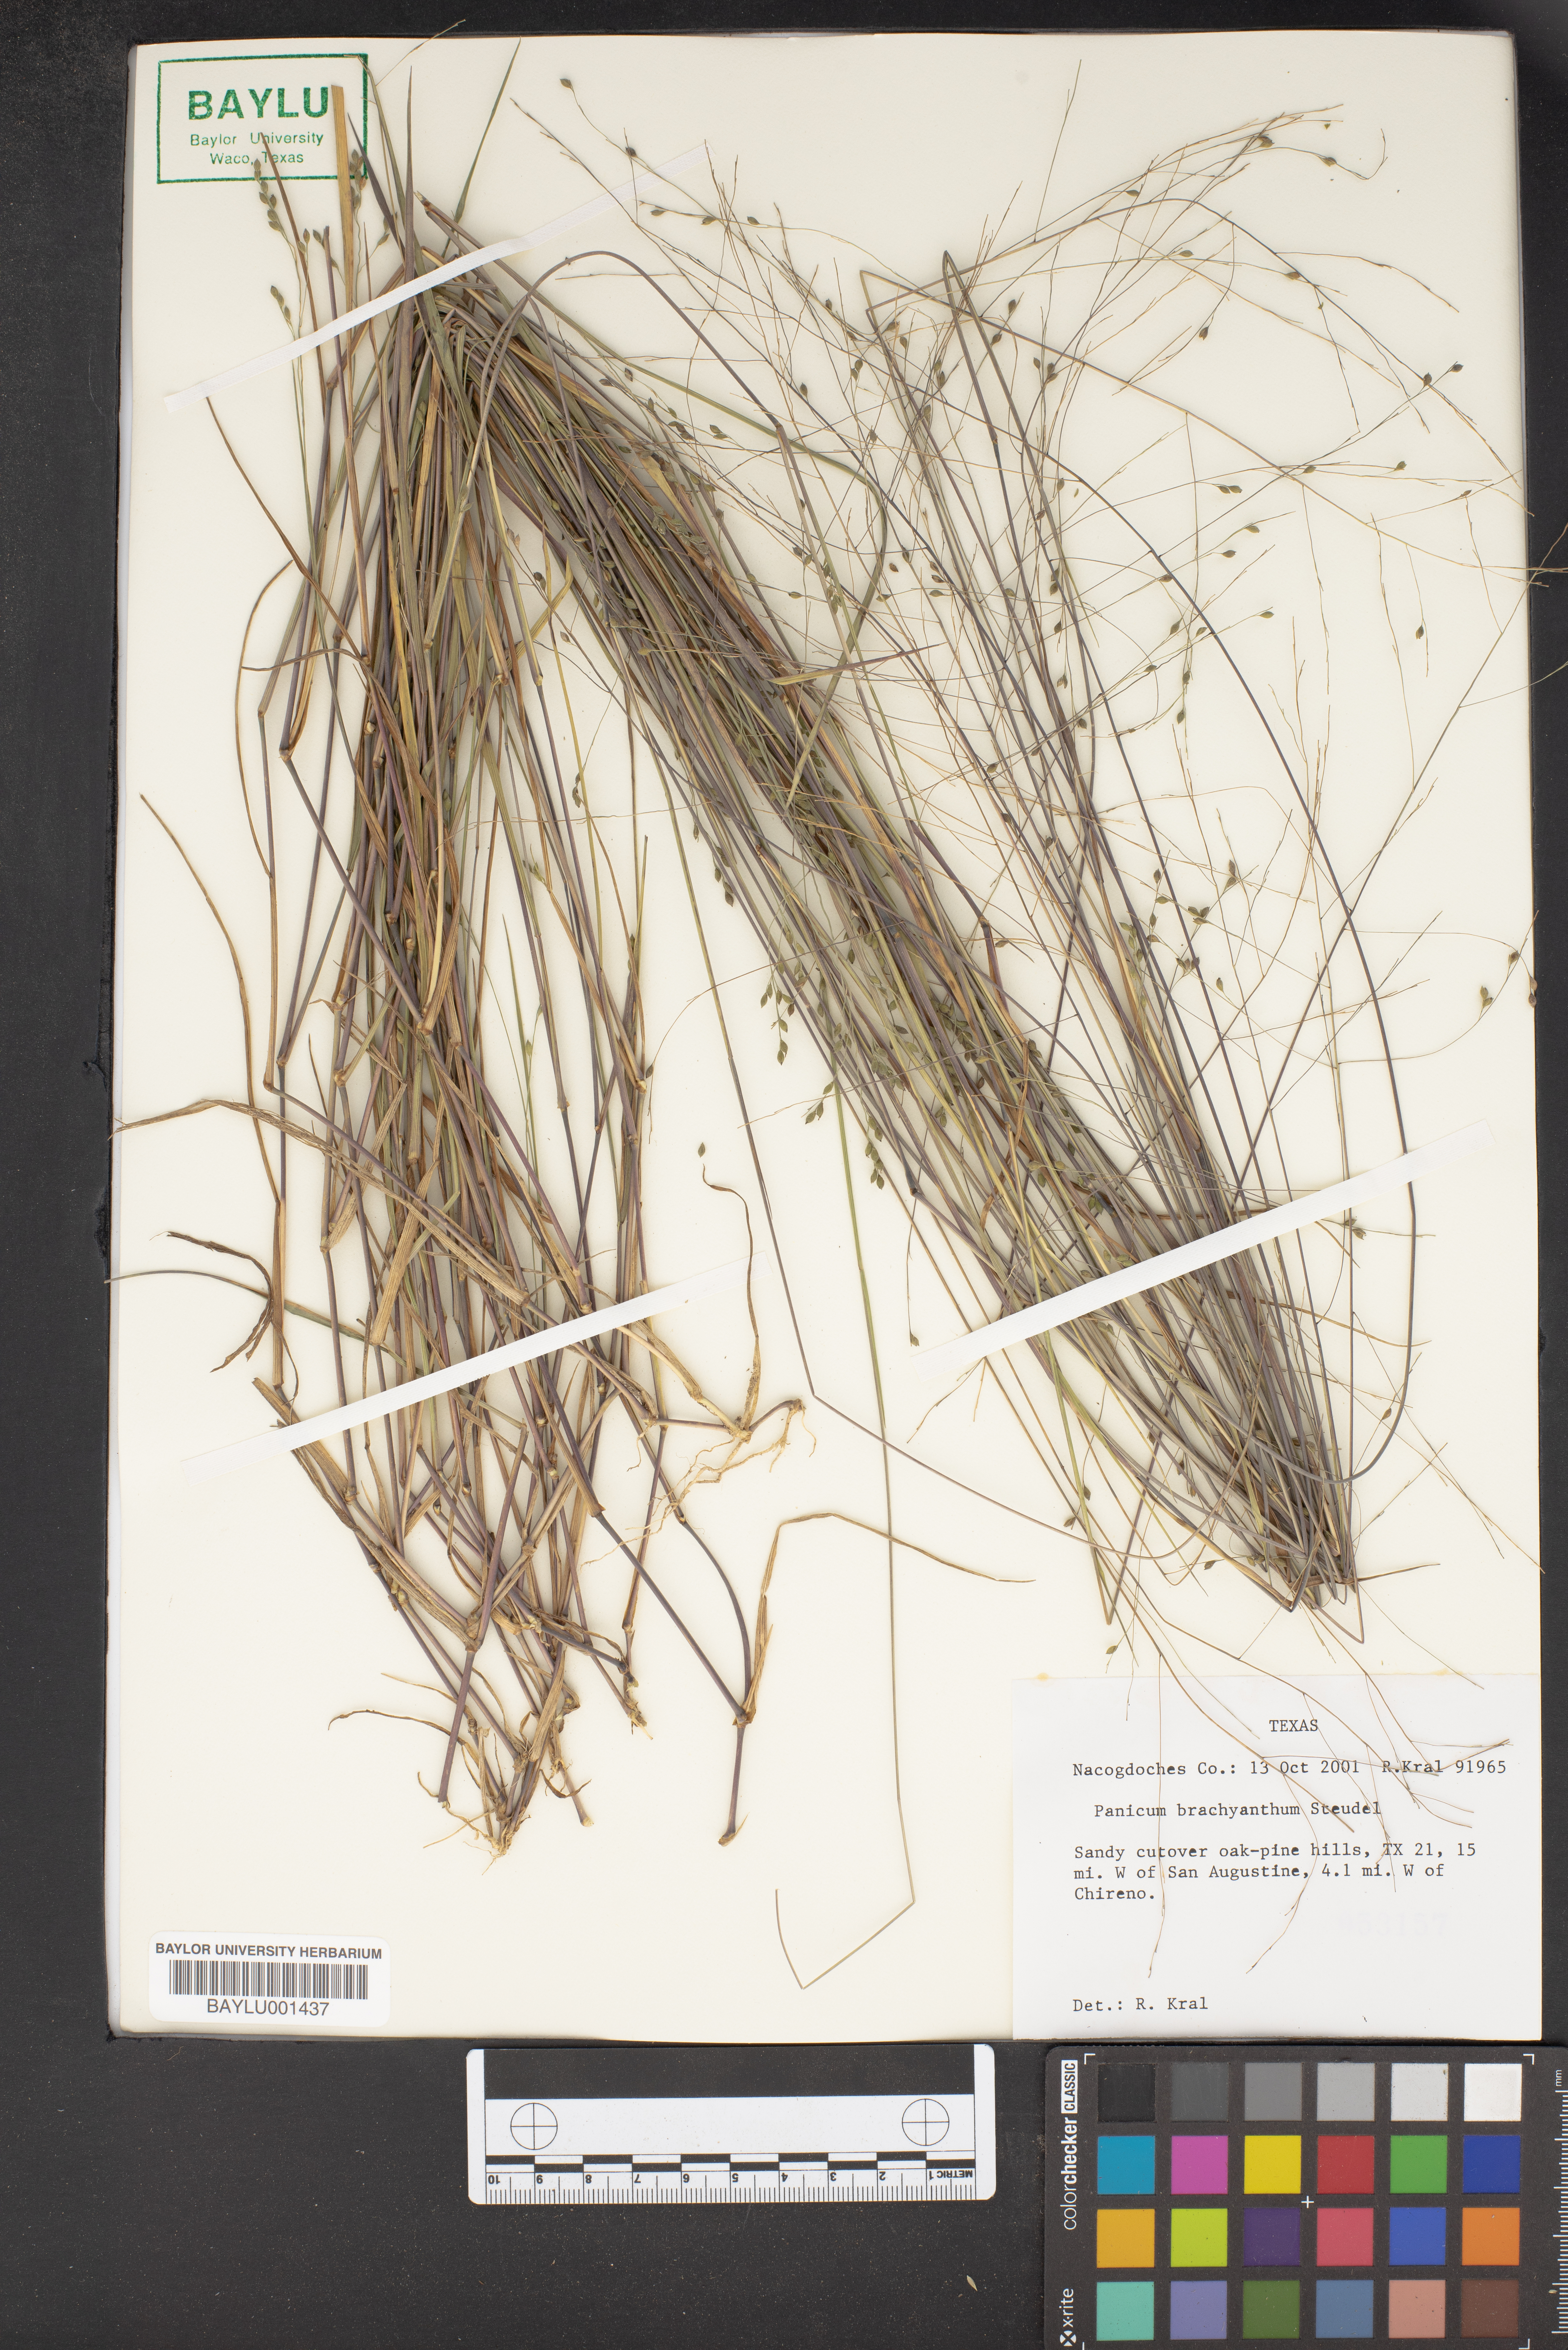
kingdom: Plantae
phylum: Tracheophyta
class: Liliopsida
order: Poales
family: Poaceae
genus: Kellochloa
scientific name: Kellochloa brachyantha
